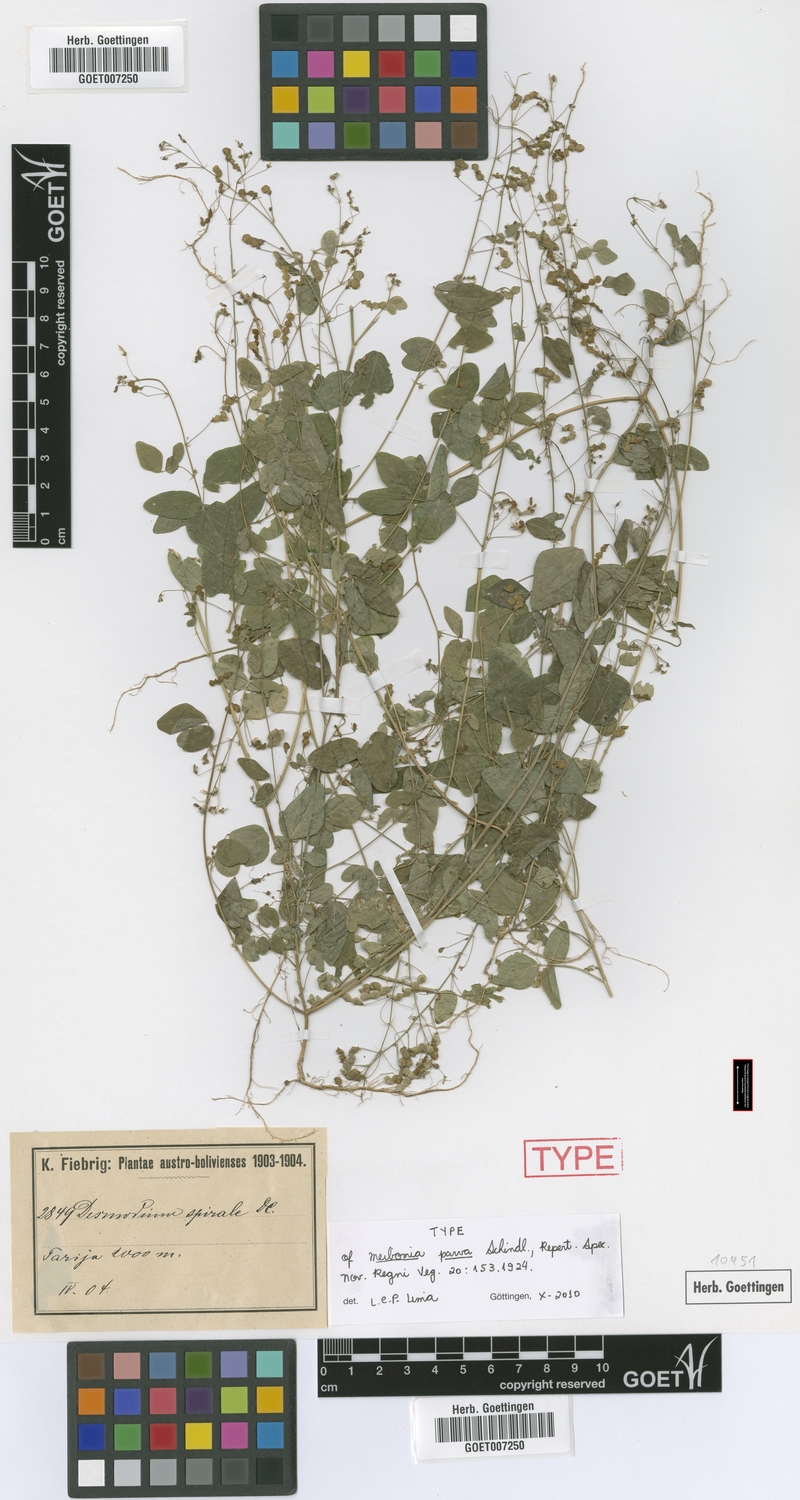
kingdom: Plantae
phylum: Tracheophyta
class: Magnoliopsida
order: Fabales
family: Fabaceae
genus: Desmodium
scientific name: Desmodium procumbens
